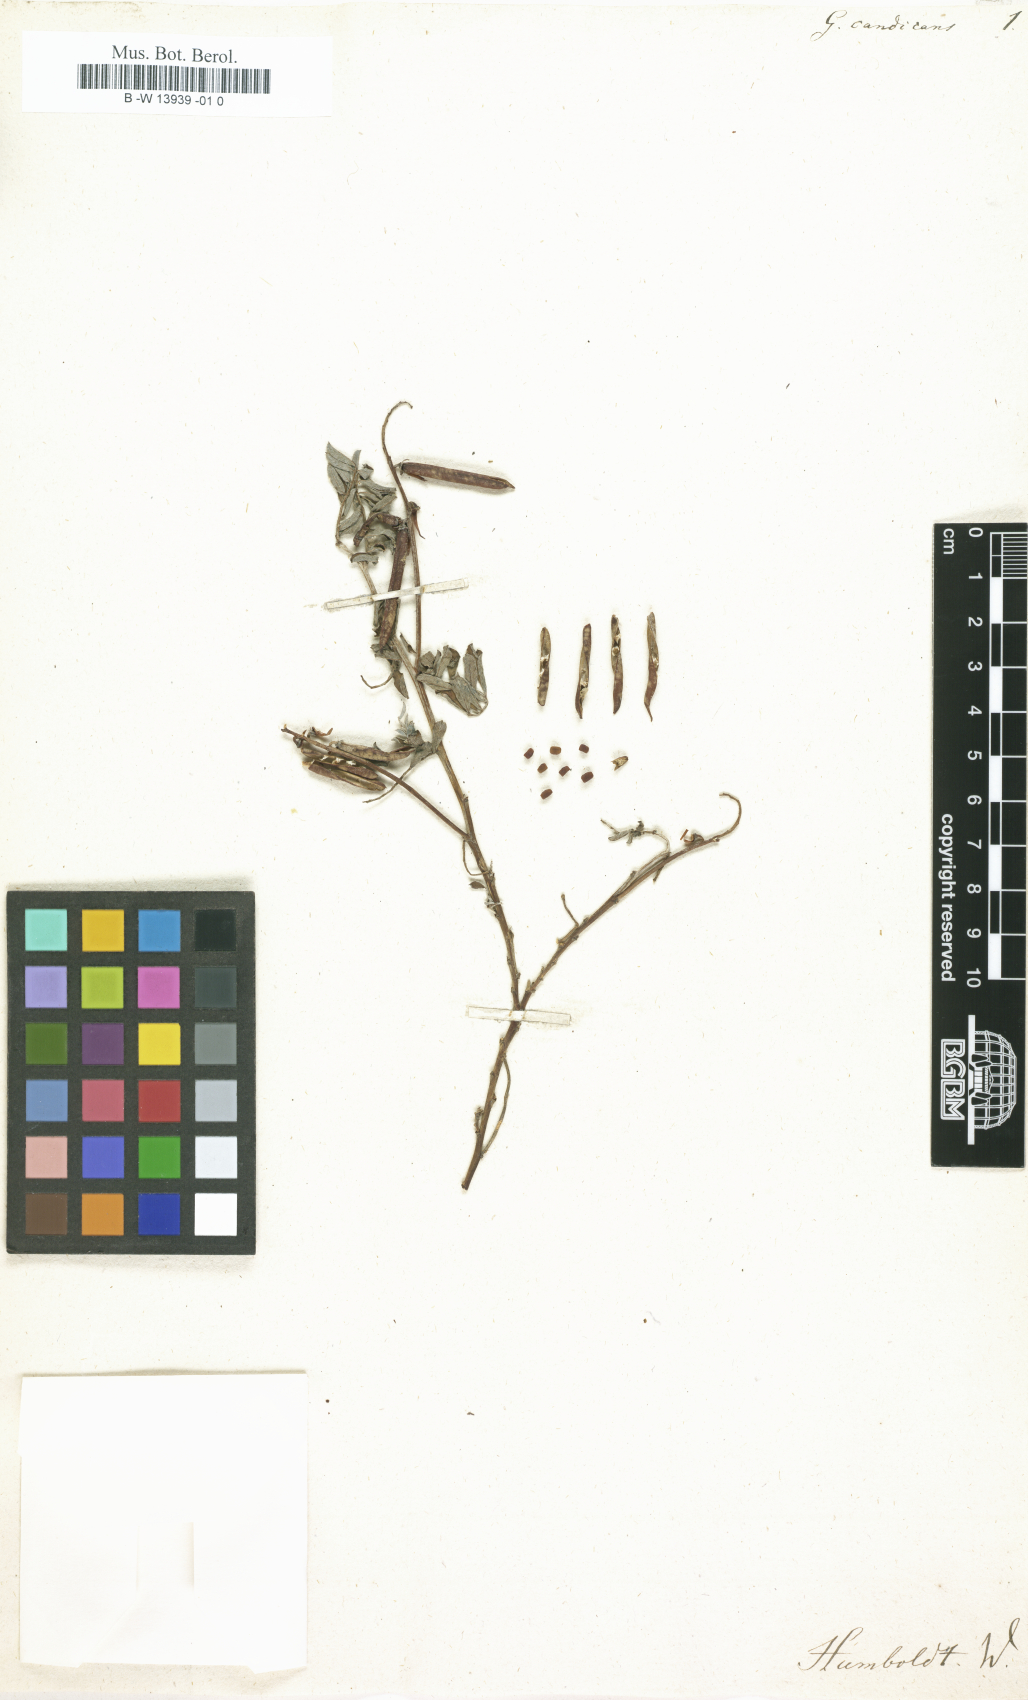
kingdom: Plantae
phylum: Tracheophyta
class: Magnoliopsida
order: Fabales
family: Fabaceae
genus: Galega
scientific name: Galega
